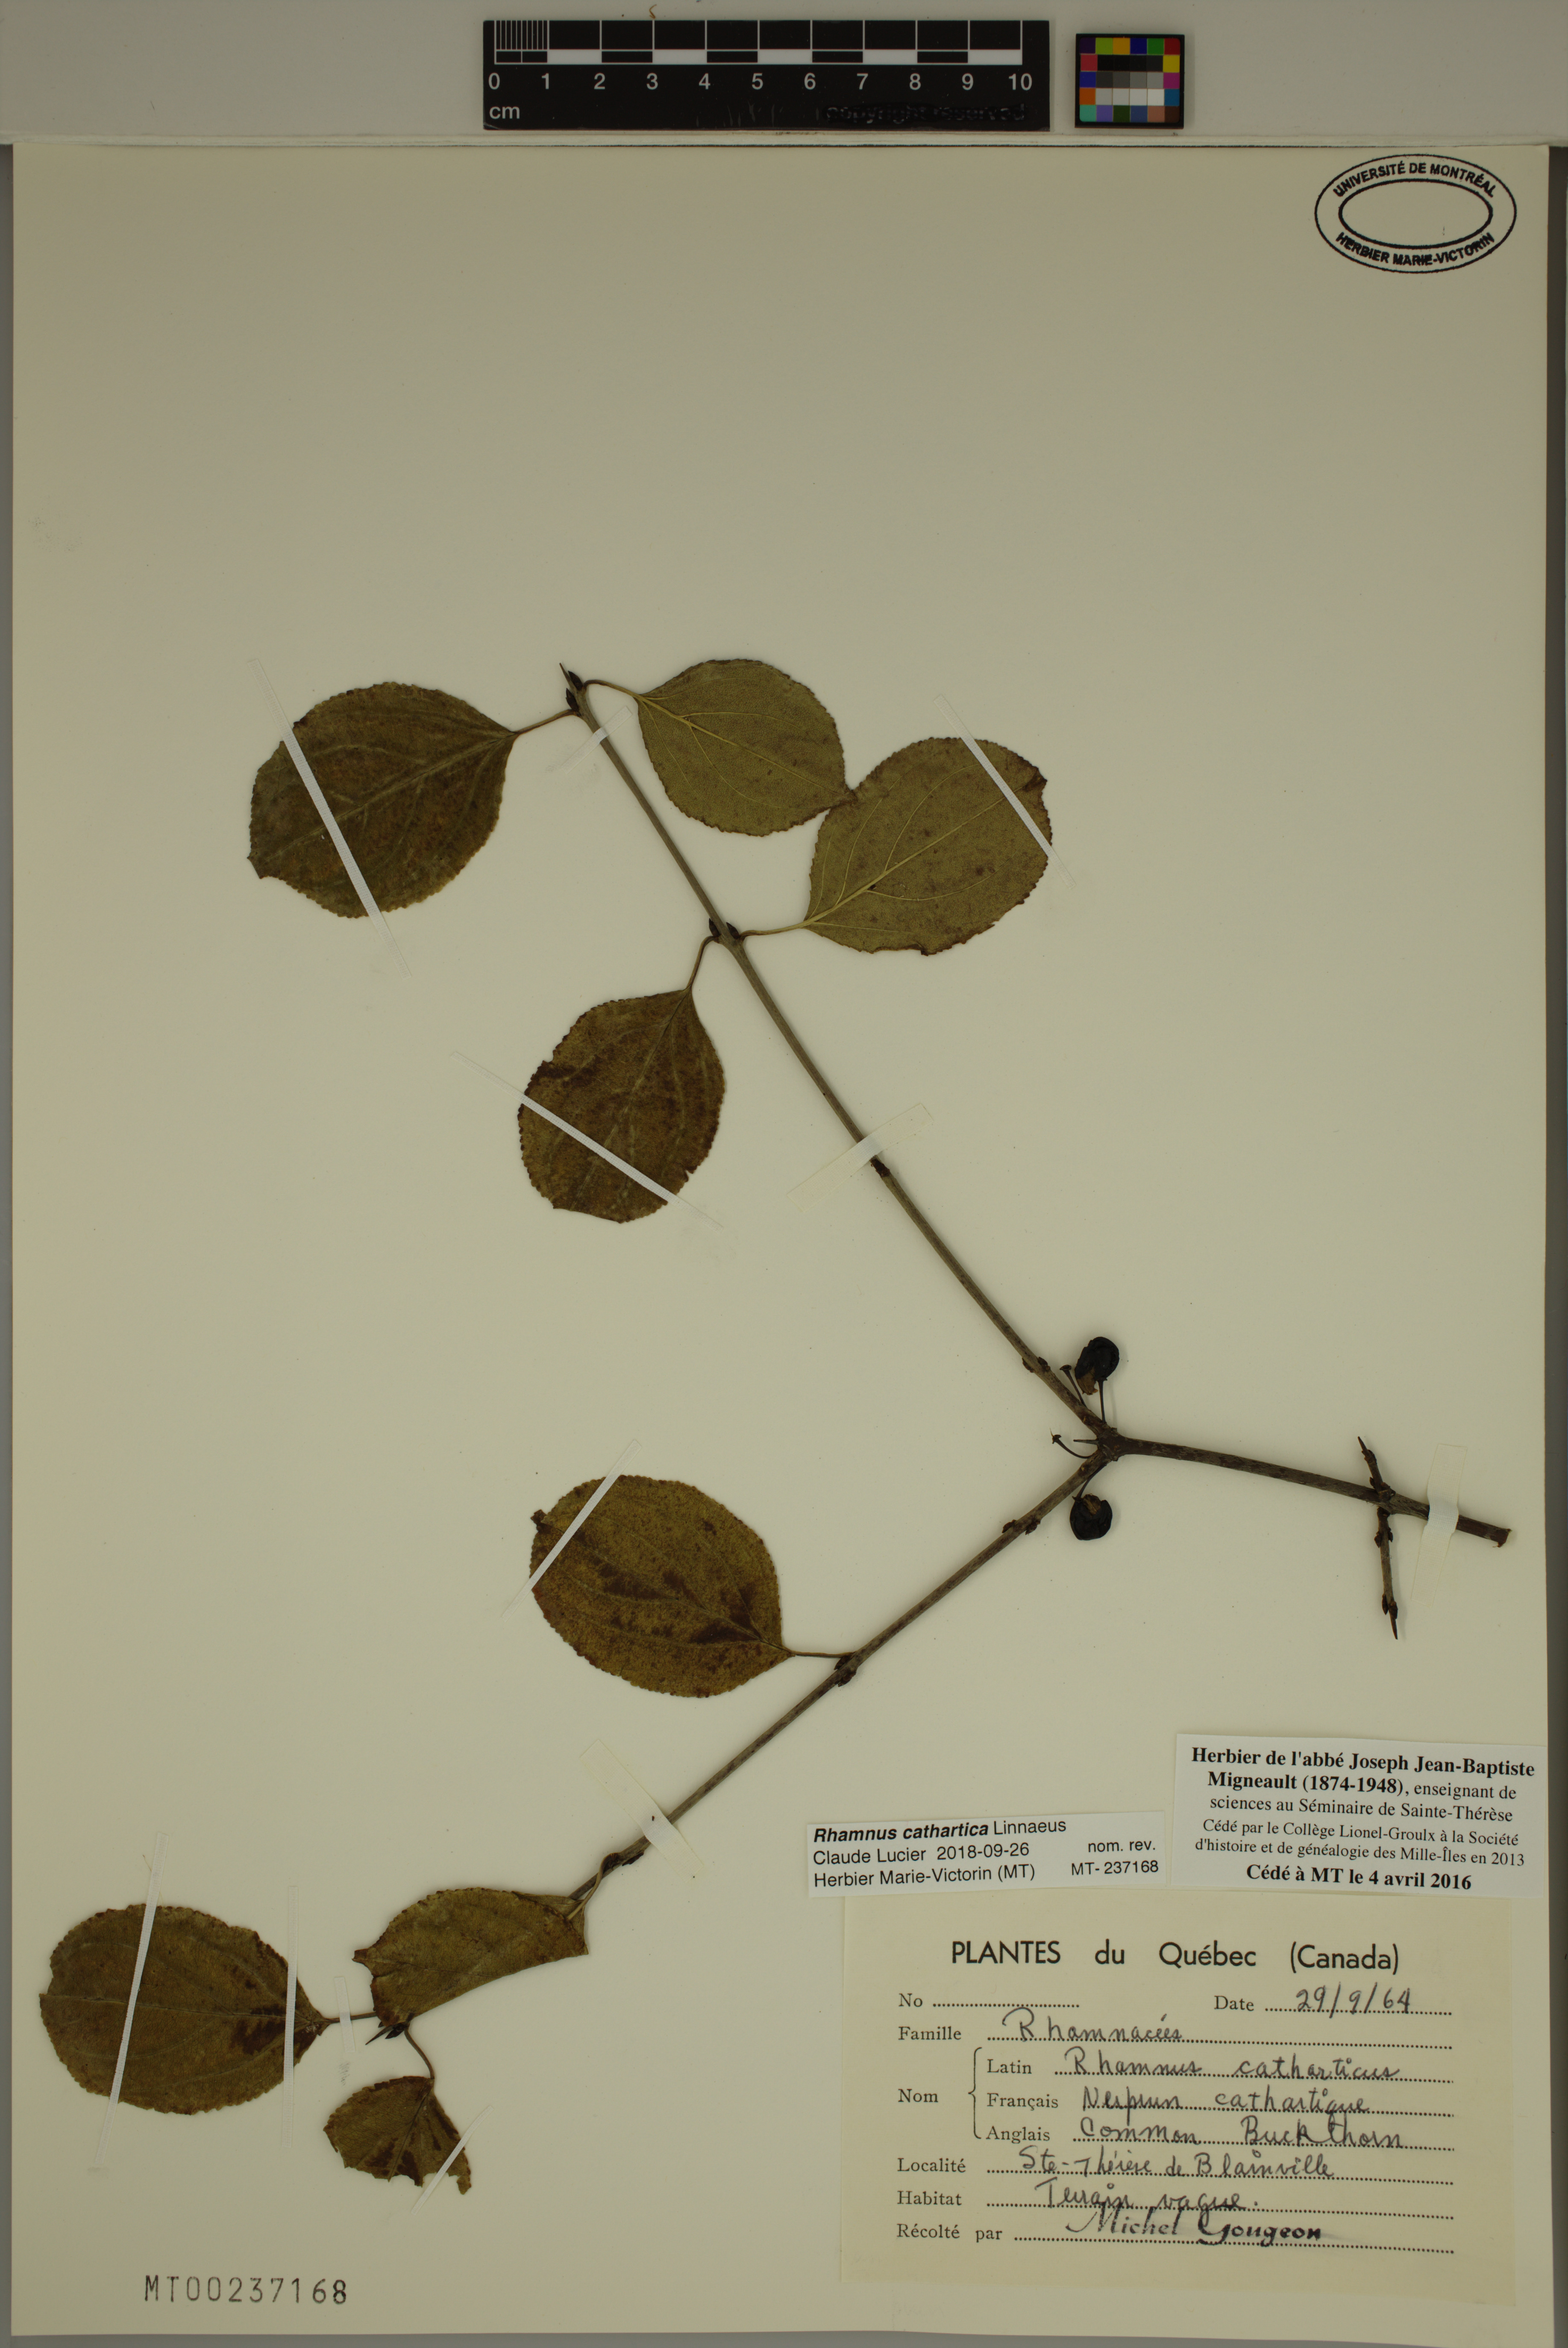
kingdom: Plantae
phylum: Tracheophyta
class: Magnoliopsida
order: Rosales
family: Rhamnaceae
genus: Rhamnus
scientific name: Rhamnus cathartica
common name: Common buckthorn
